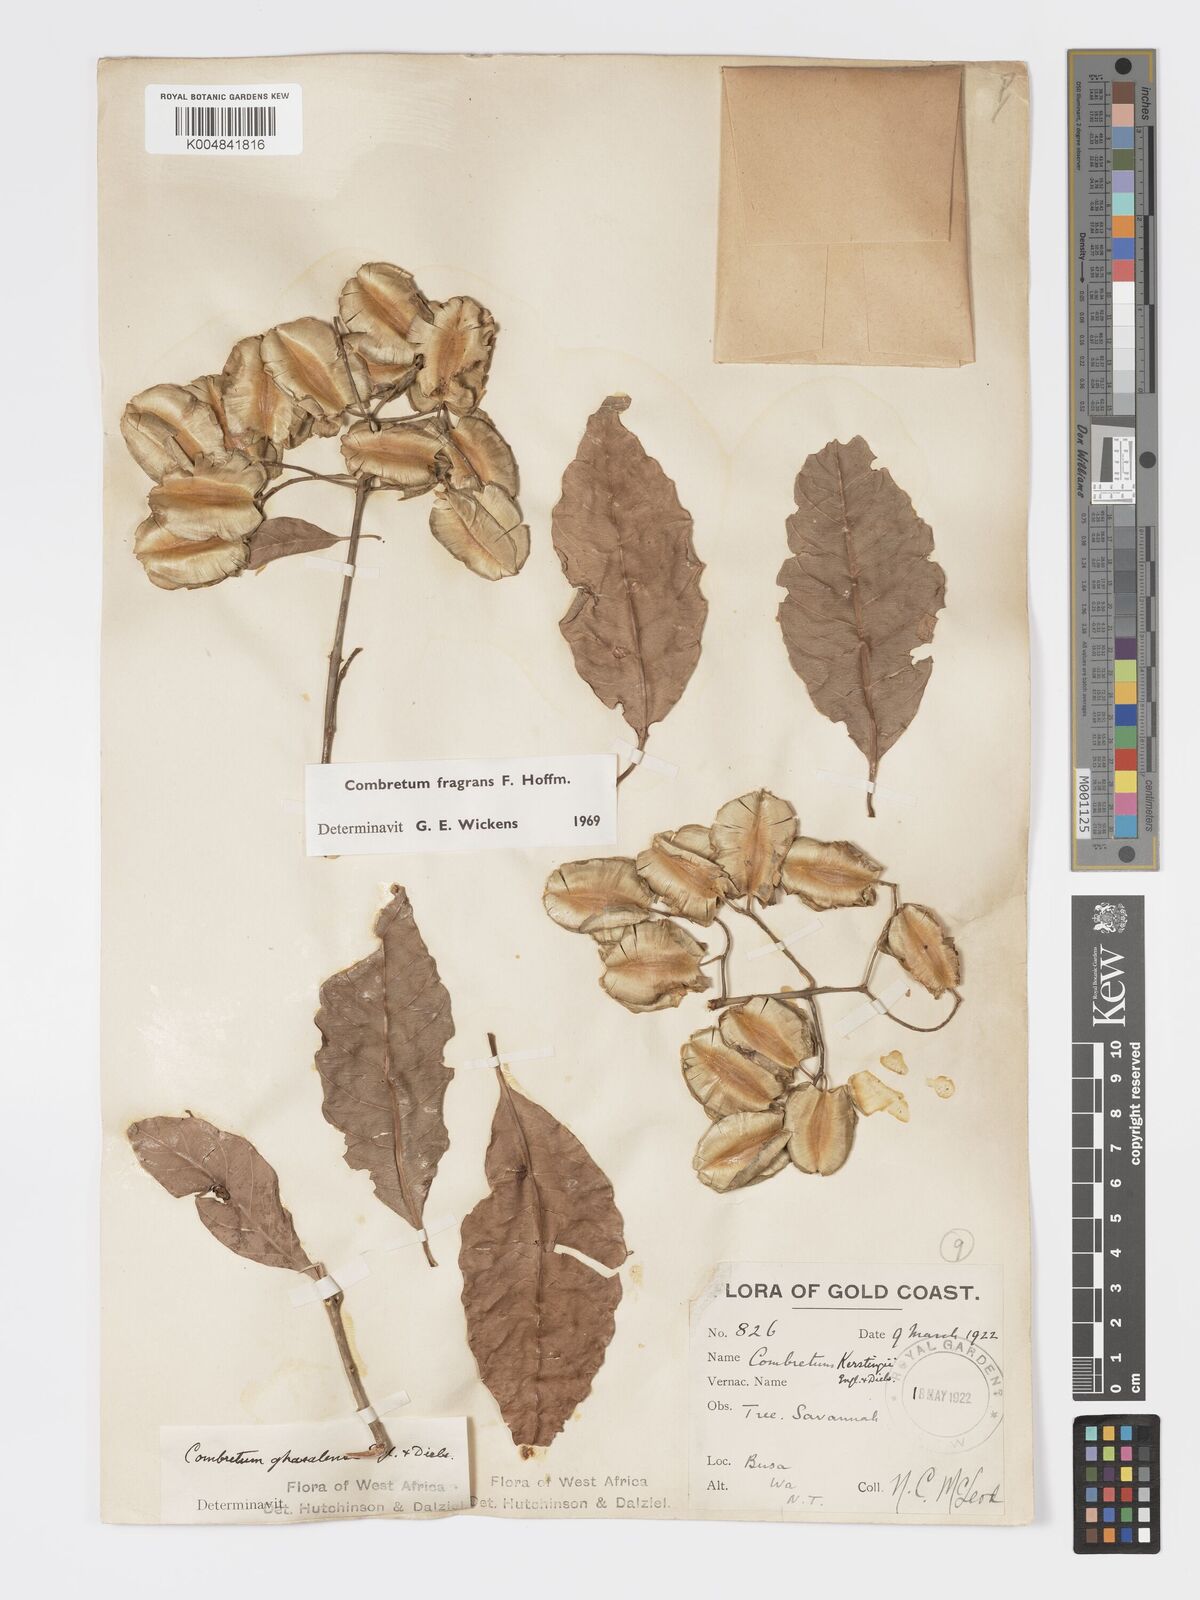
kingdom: Plantae
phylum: Tracheophyta
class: Magnoliopsida
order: Myrtales
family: Combretaceae
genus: Combretum
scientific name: Combretum adenogonium
